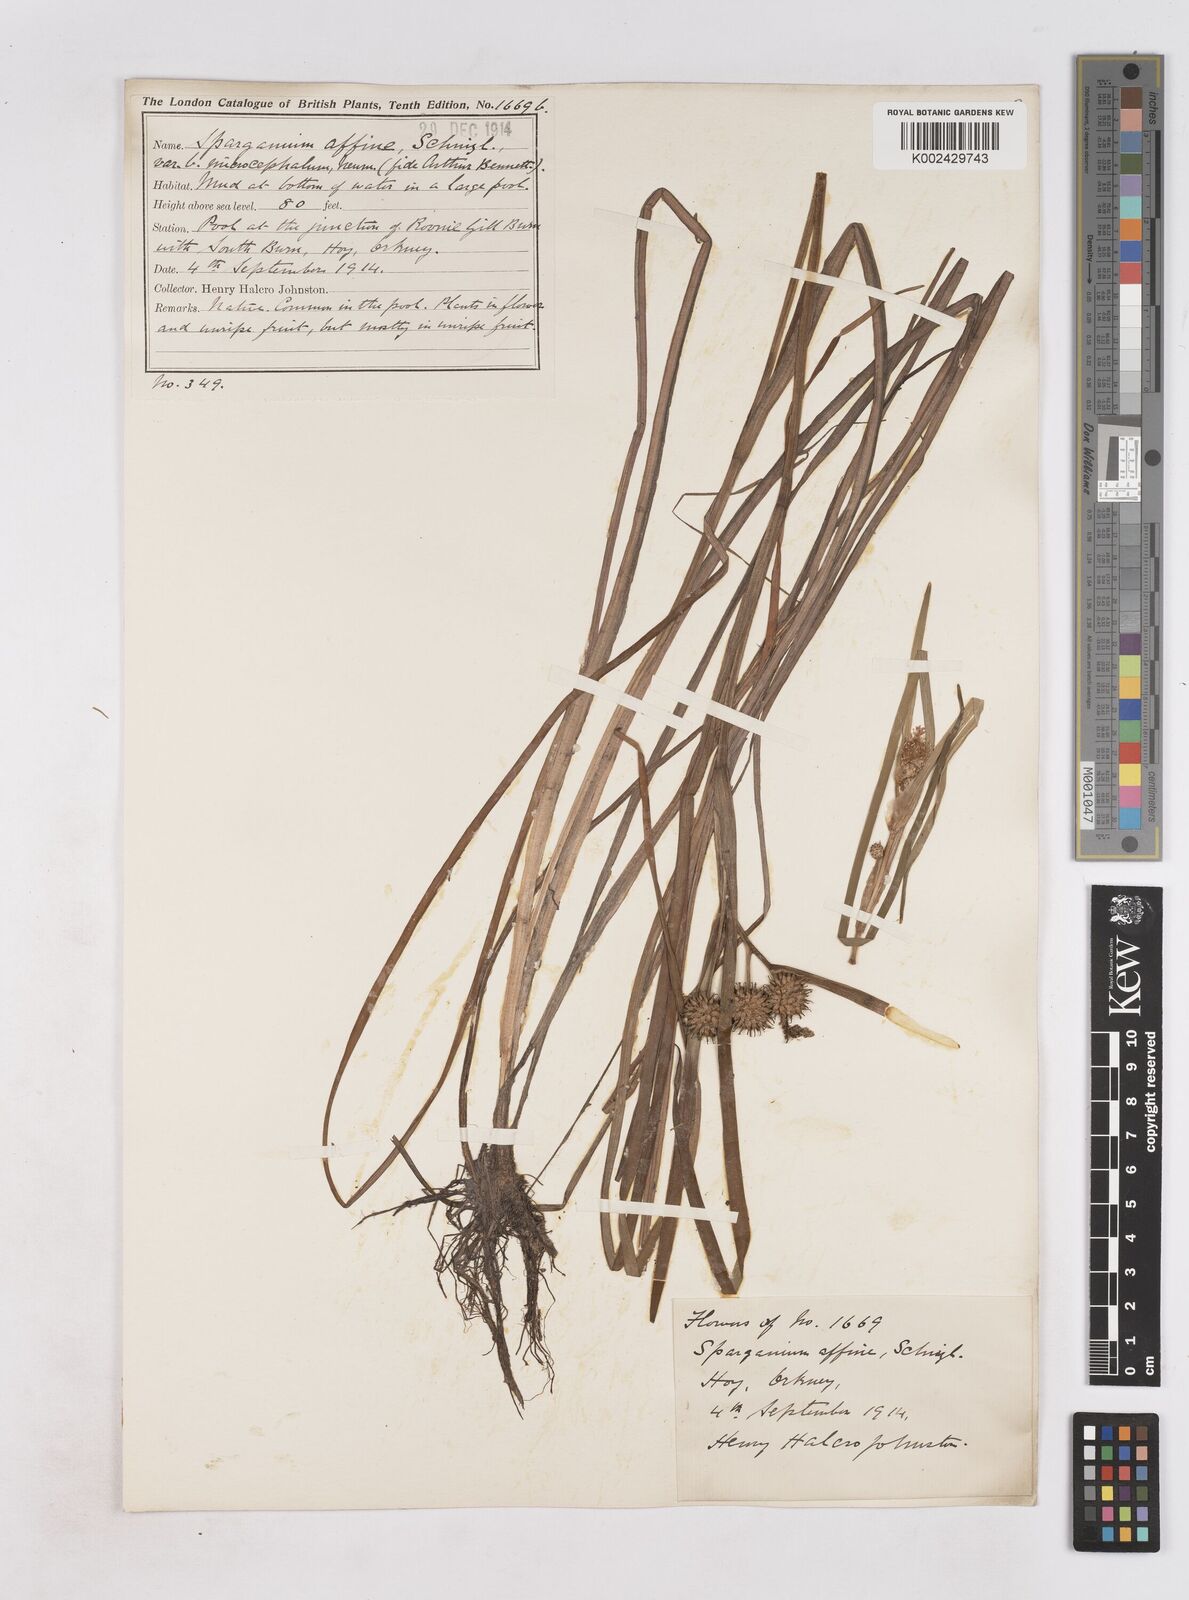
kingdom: Plantae
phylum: Tracheophyta
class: Liliopsida
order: Poales
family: Typhaceae
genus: Sparganium
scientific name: Sparganium angustifolium
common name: Floating bur-reed
